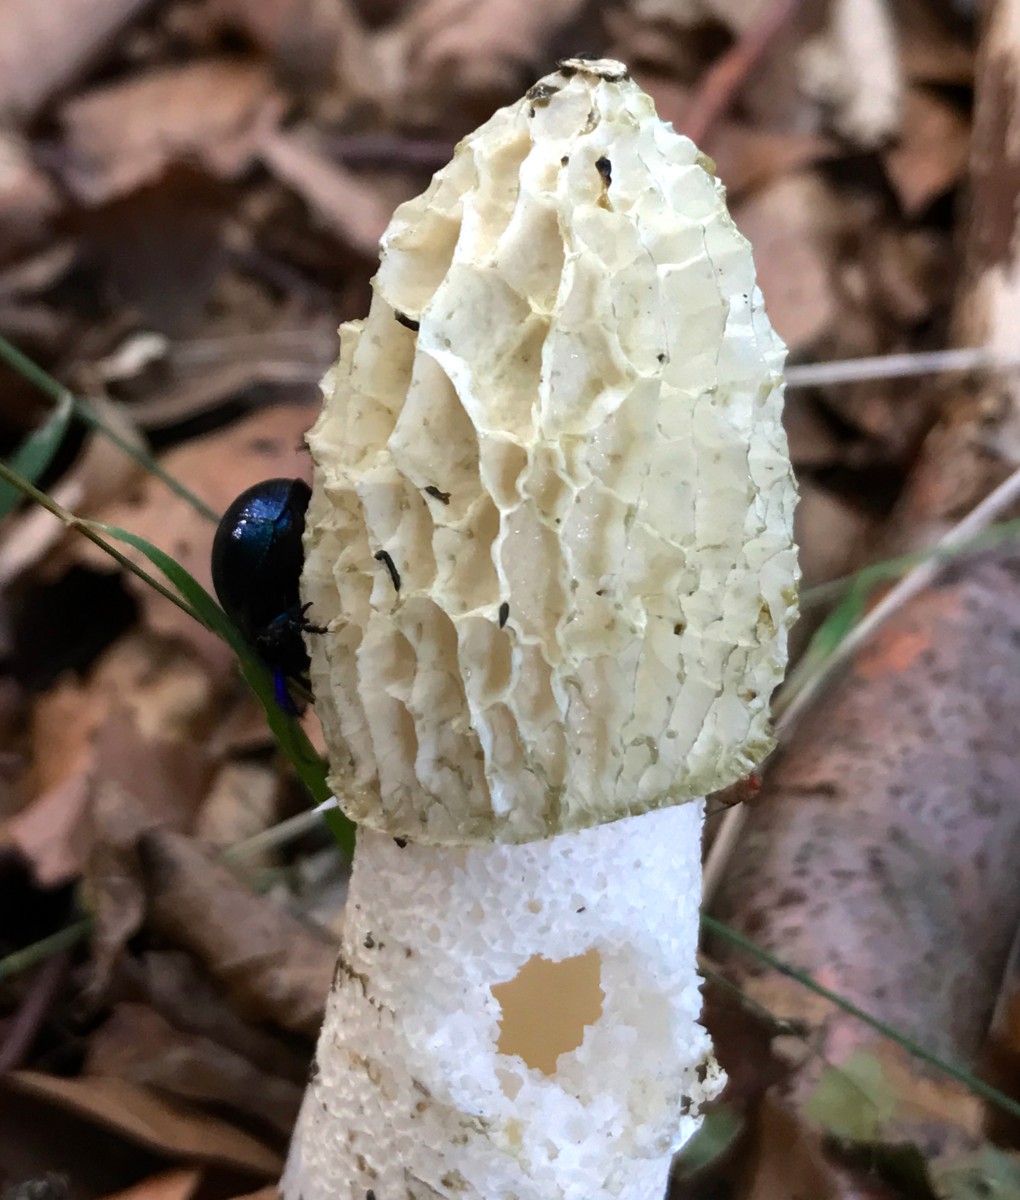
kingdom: Fungi
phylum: Basidiomycota
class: Agaricomycetes
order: Phallales
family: Phallaceae
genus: Phallus
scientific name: Phallus impudicus
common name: almindelig stinksvamp
